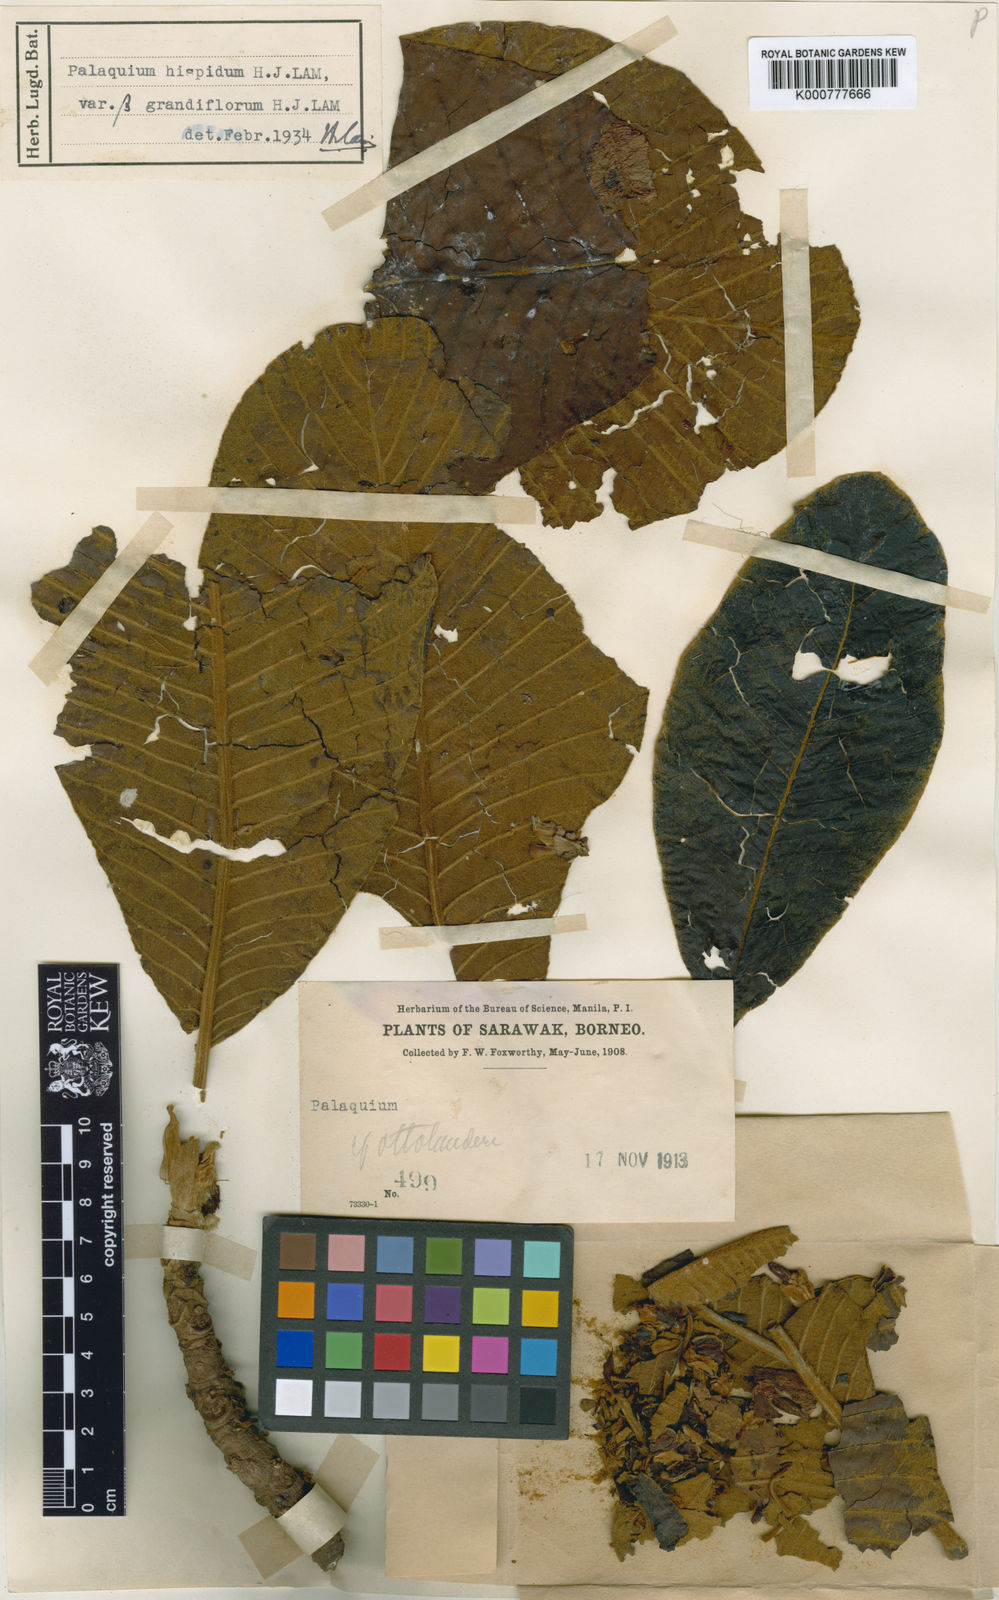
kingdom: Plantae
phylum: Tracheophyta
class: Magnoliopsida
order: Ericales
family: Sapotaceae
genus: Palaquium
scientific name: Palaquium hispidum
